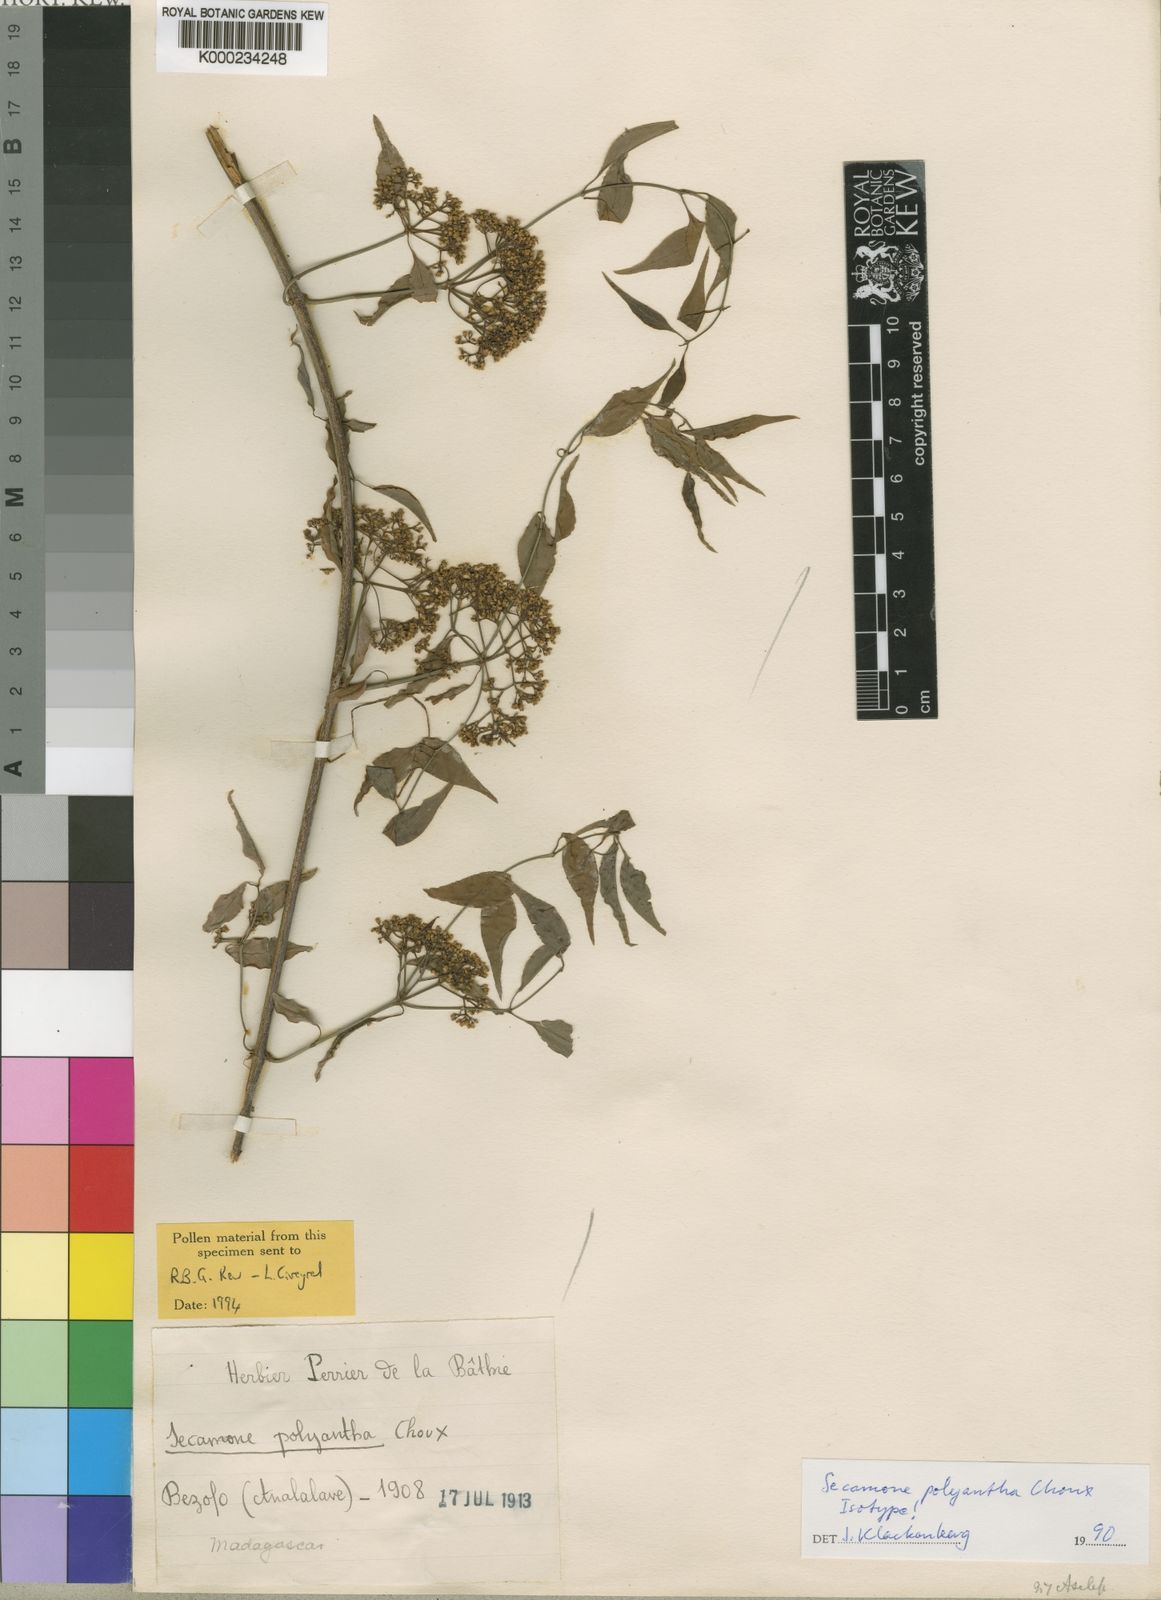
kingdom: Plantae
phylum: Tracheophyta
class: Magnoliopsida
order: Gentianales
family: Apocynaceae
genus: Secamone
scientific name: Secamone polyantha
